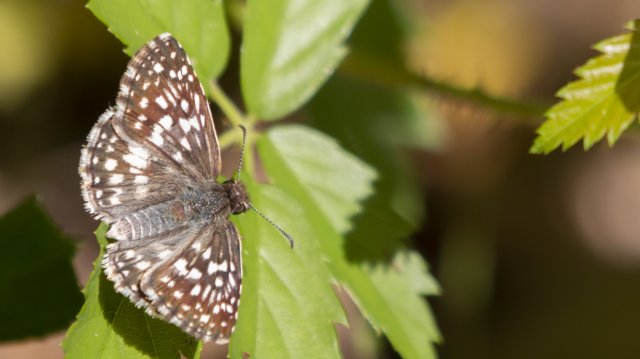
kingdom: Animalia
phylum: Arthropoda
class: Insecta
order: Lepidoptera
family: Hesperiidae
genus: Pyrgus
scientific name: Pyrgus oileus
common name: Tropical Checkered-Skipper
